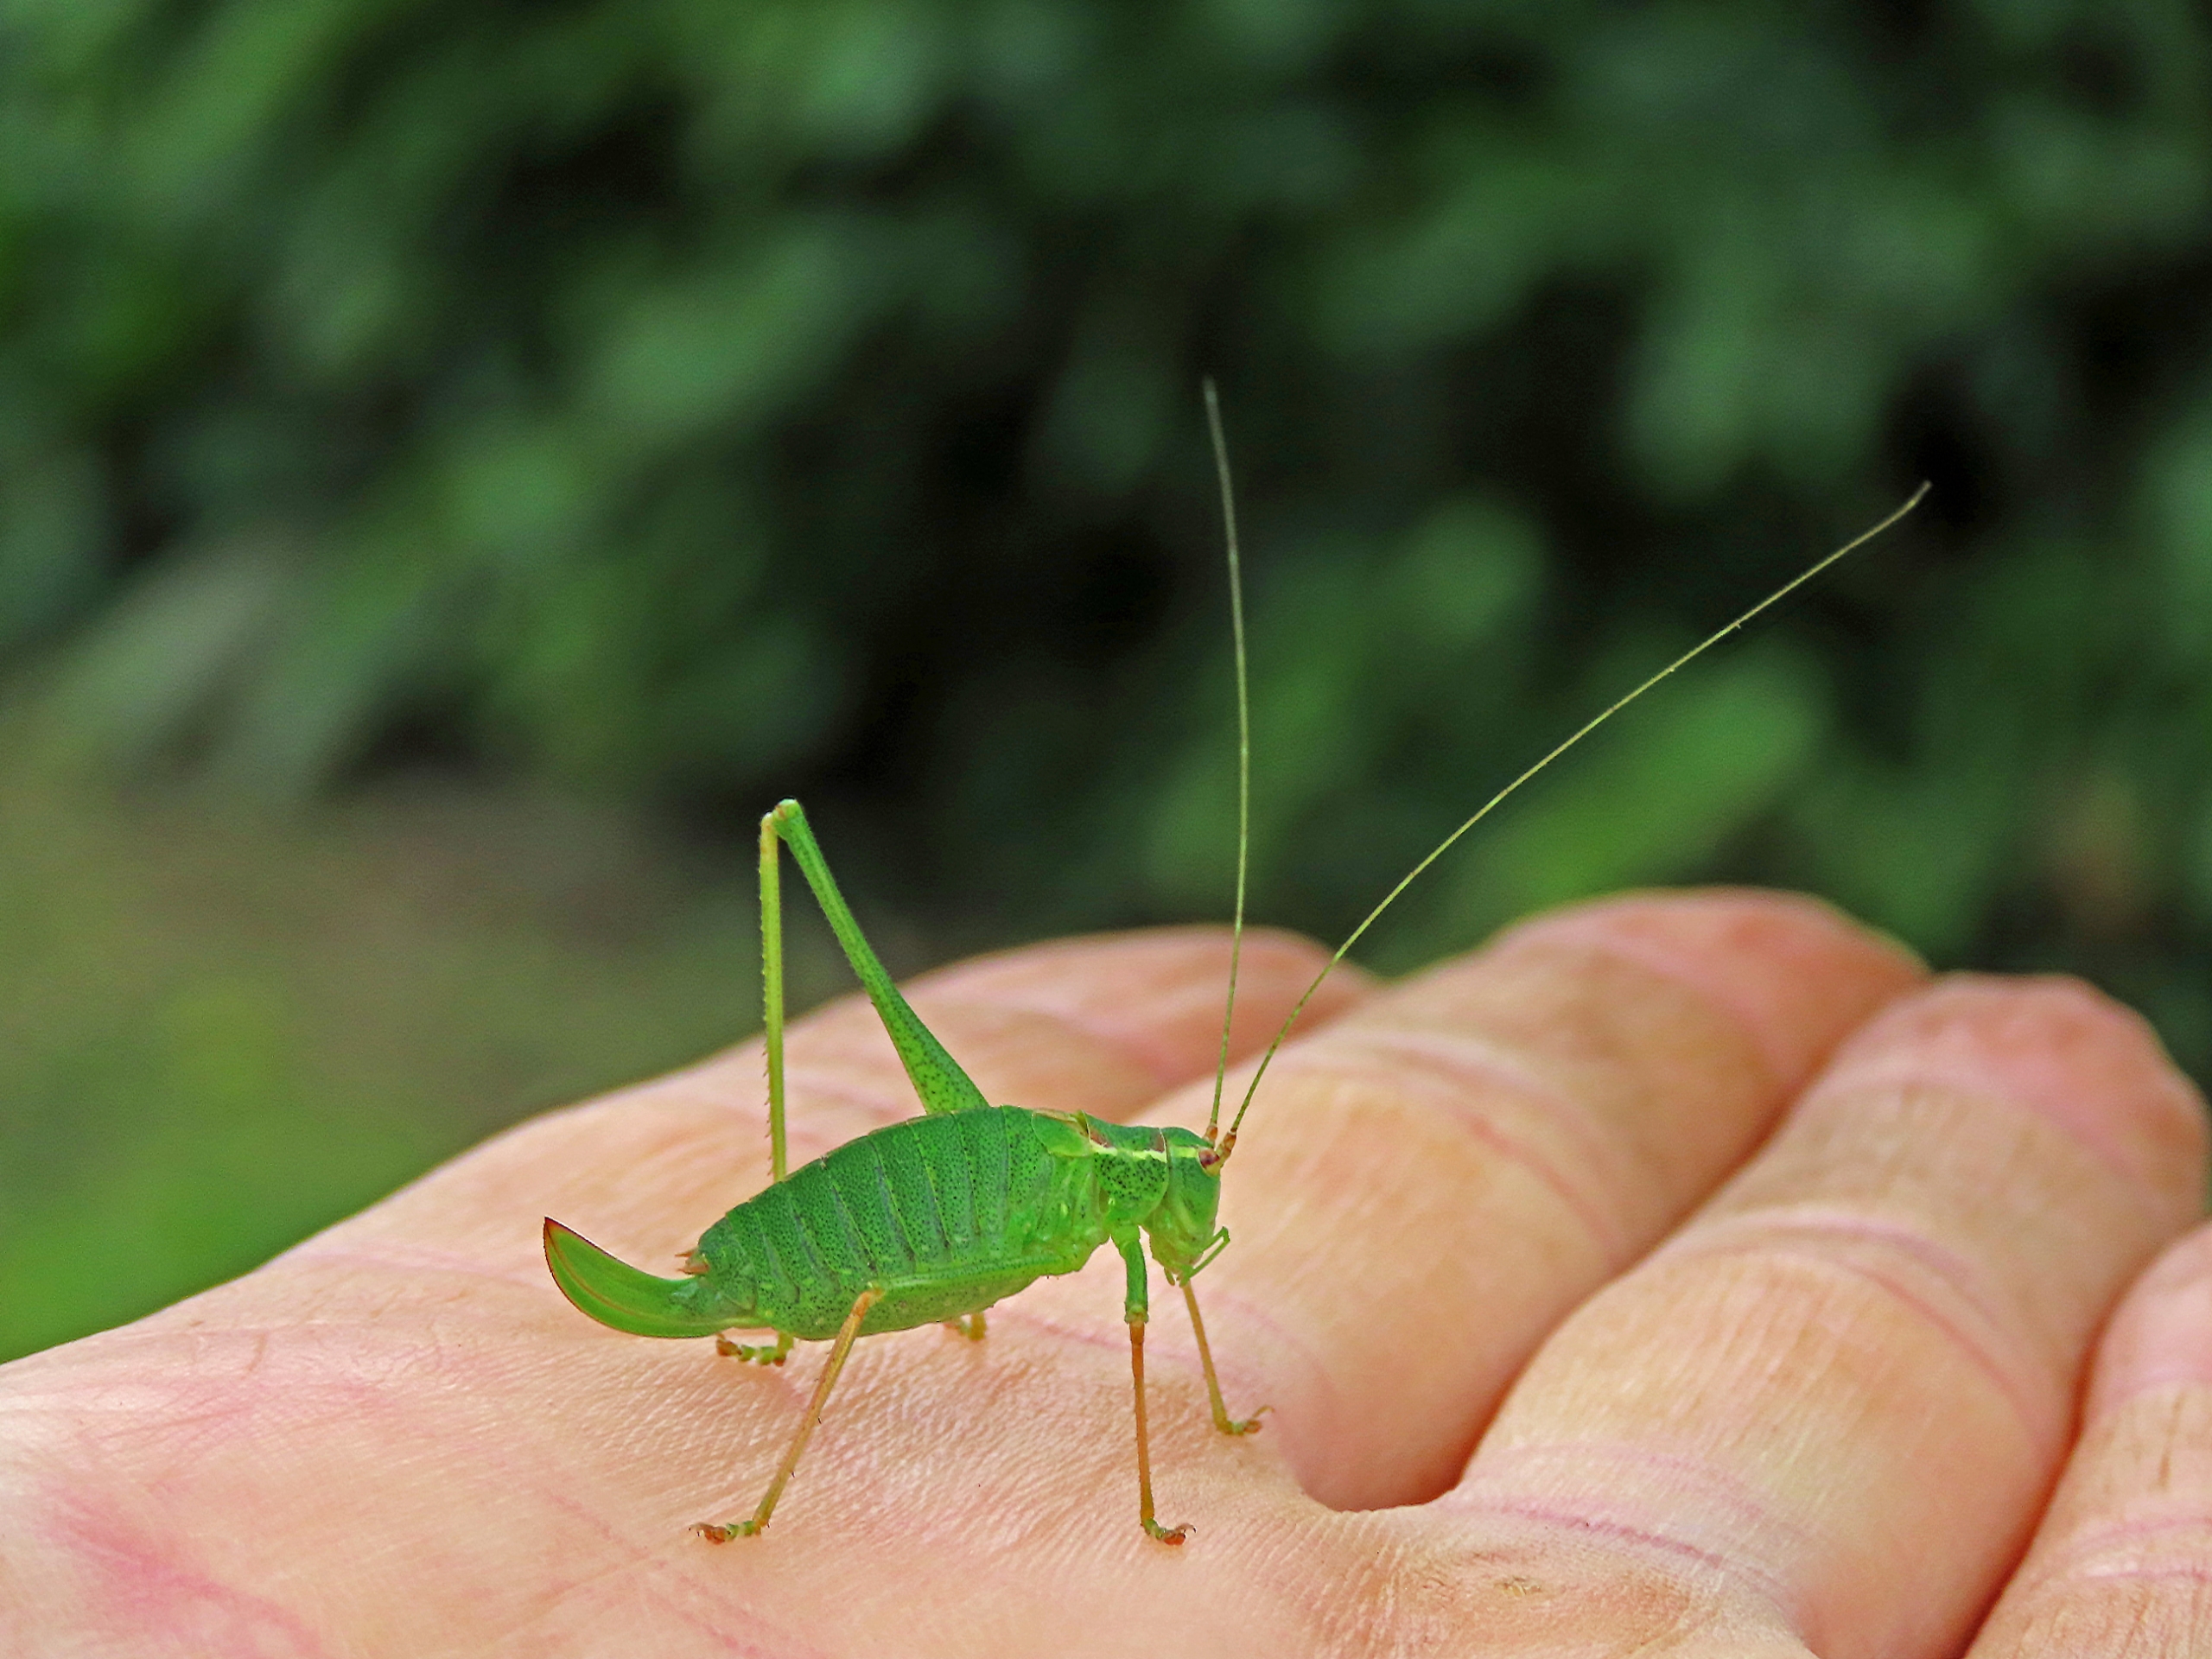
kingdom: Animalia
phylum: Arthropoda
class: Insecta
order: Orthoptera
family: Tettigoniidae
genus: Leptophyes
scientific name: Leptophyes punctatissima
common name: Krumknivgræshoppe
